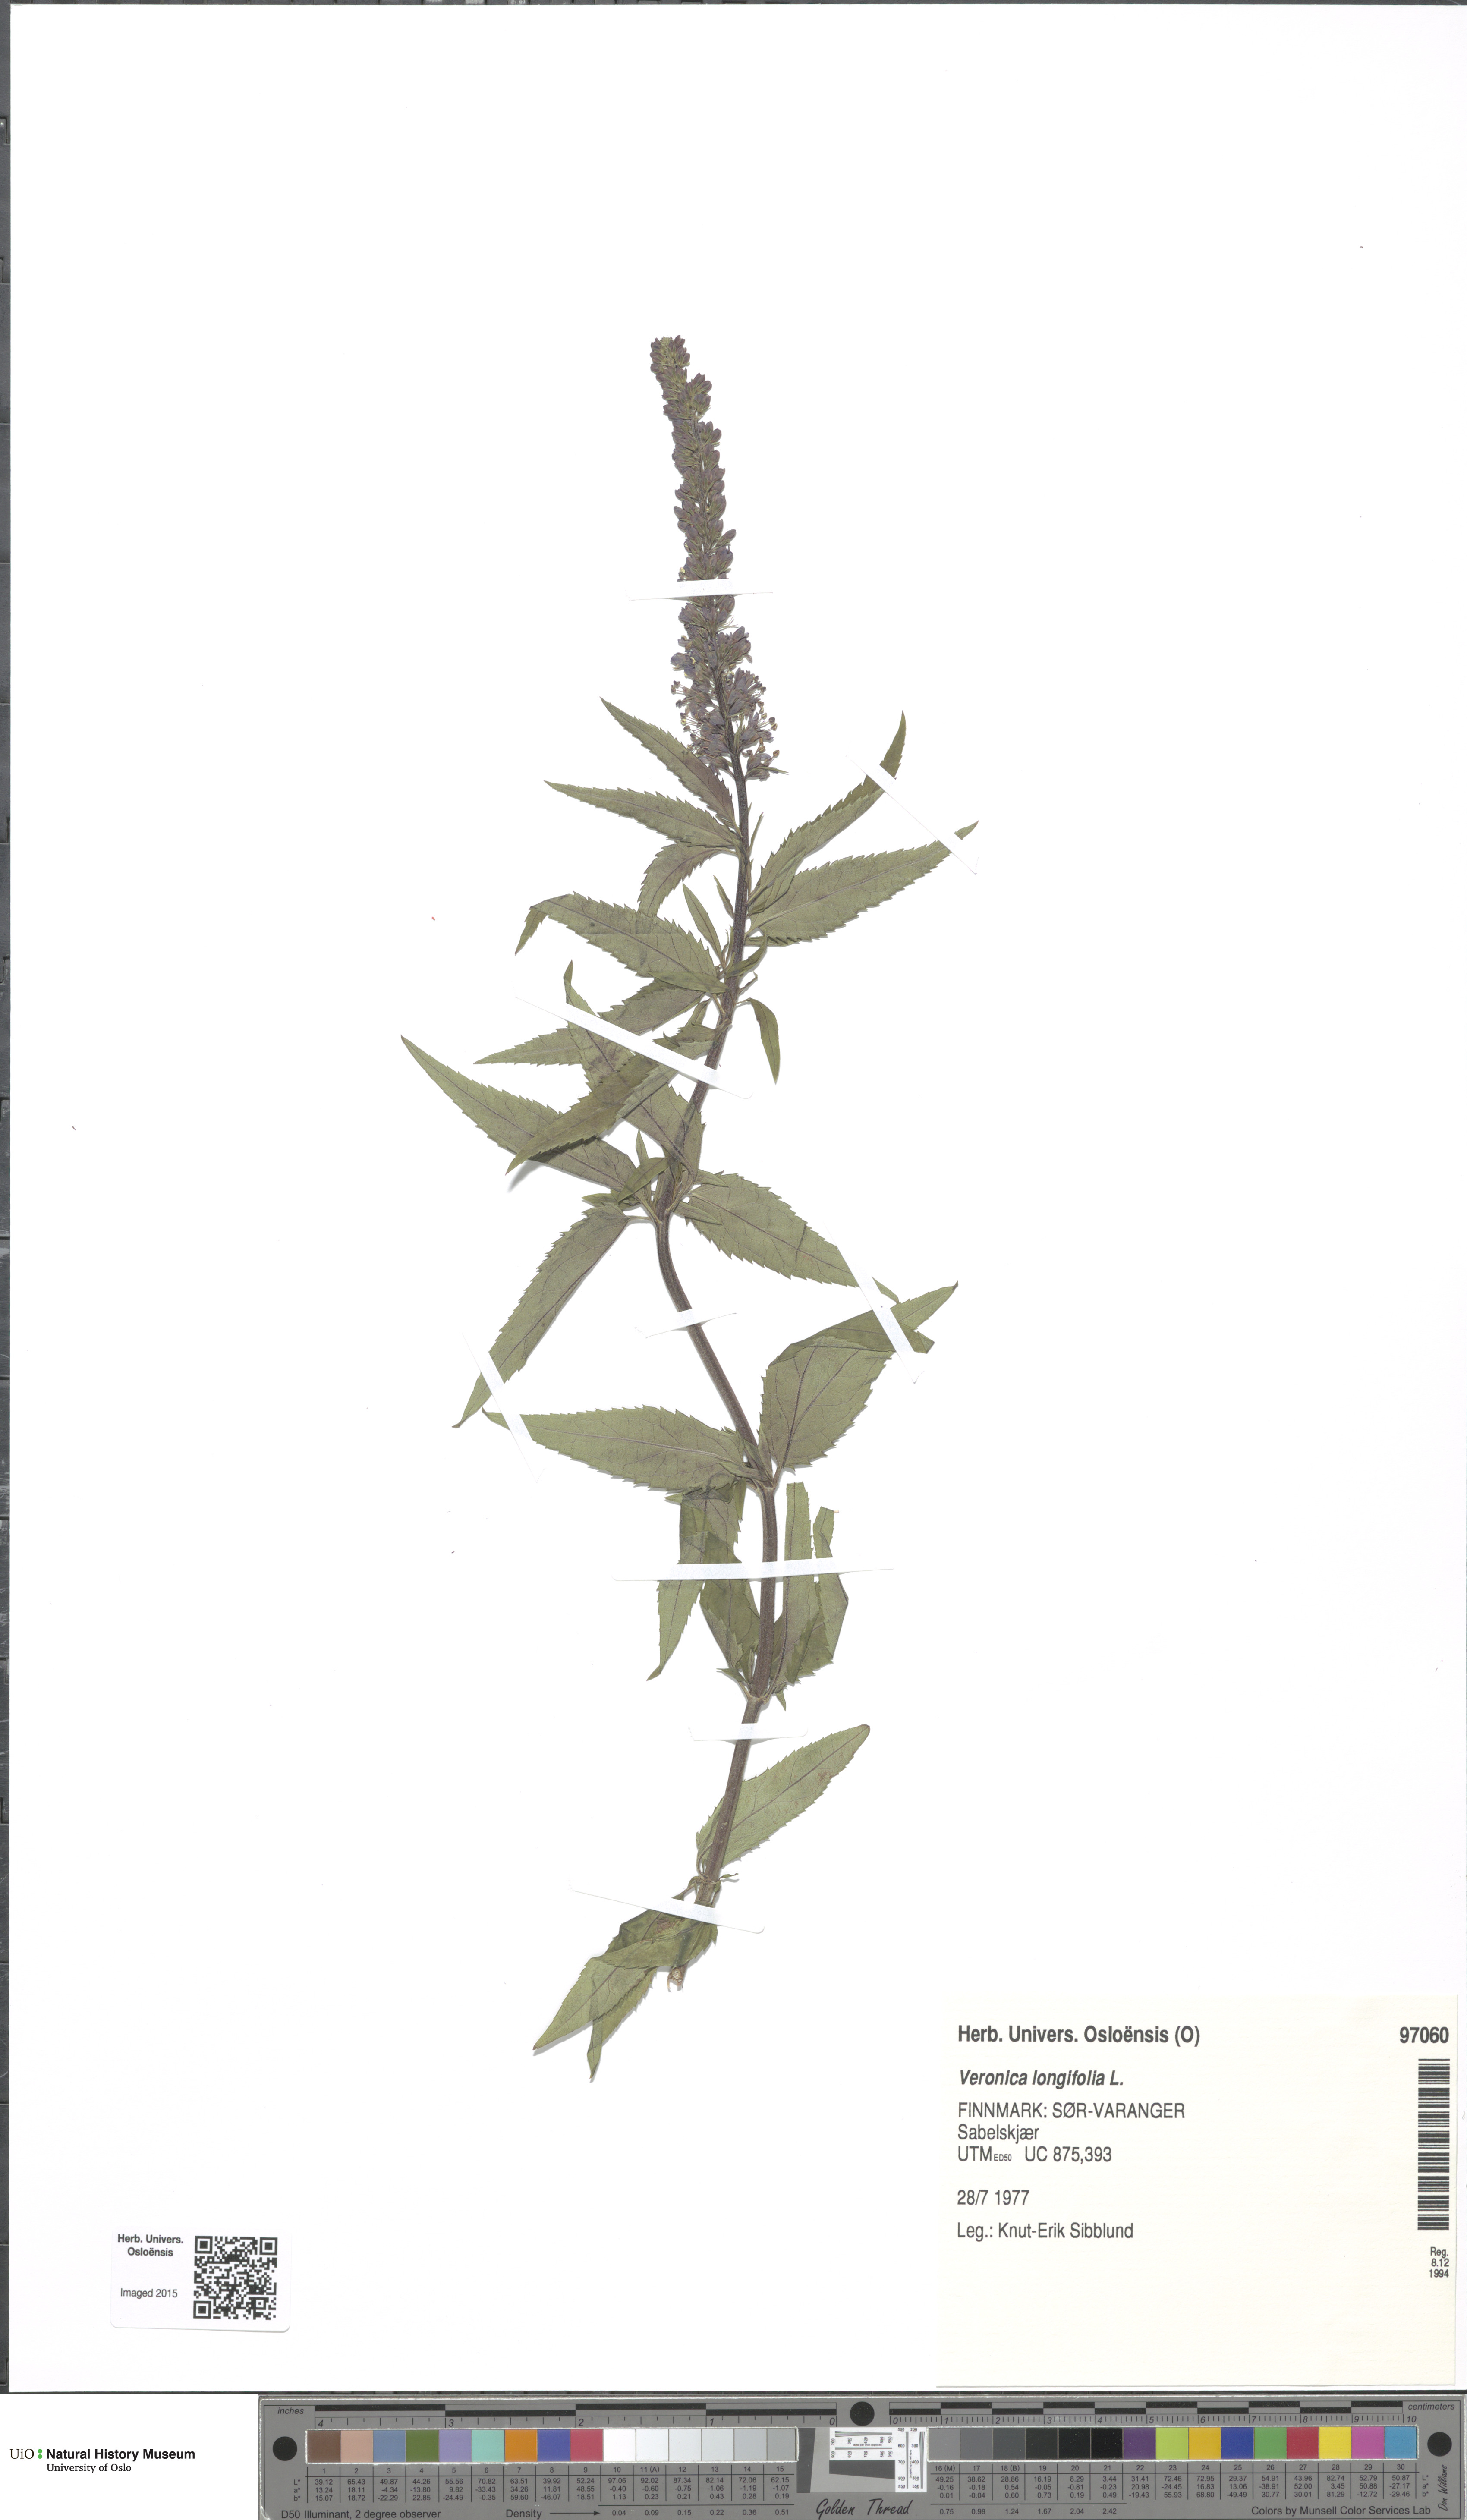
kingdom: Plantae
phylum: Tracheophyta
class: Magnoliopsida
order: Lamiales
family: Plantaginaceae
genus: Veronica
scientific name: Veronica longifolia
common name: Garden speedwell
